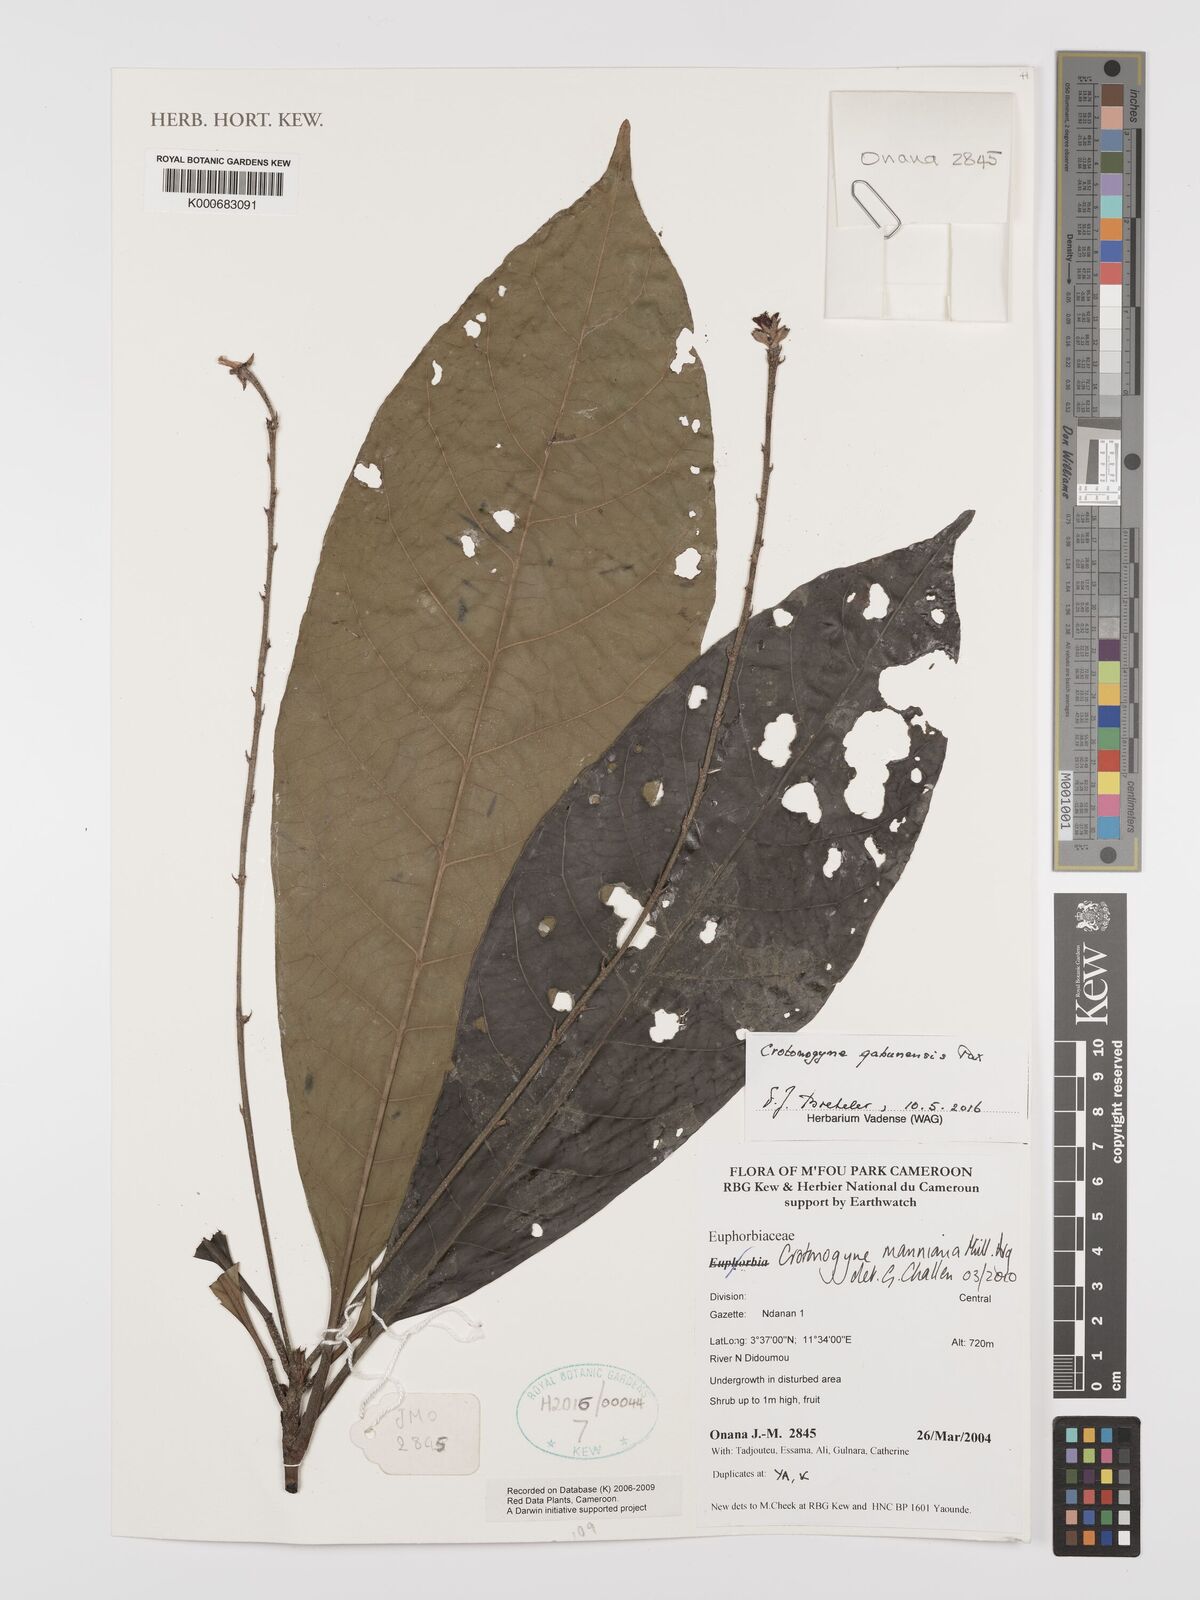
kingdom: Plantae
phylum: Tracheophyta
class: Magnoliopsida
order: Malpighiales
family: Euphorbiaceae
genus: Crotonogyne
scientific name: Crotonogyne
